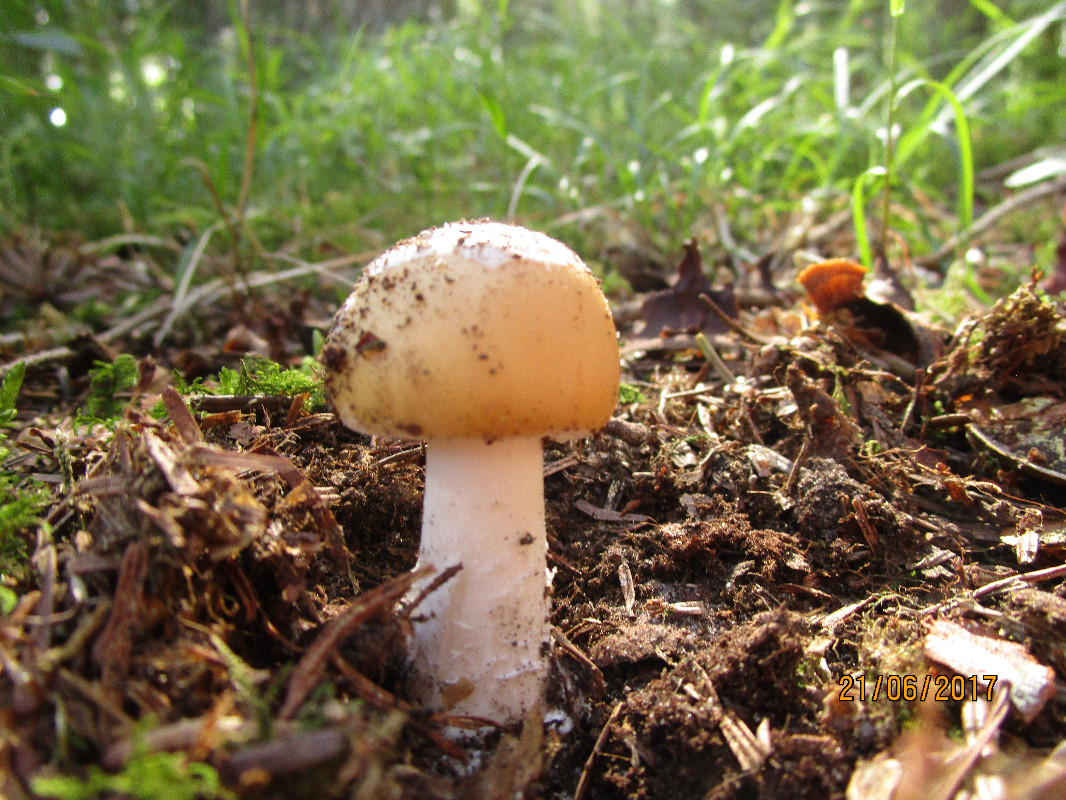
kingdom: Fungi
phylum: Basidiomycota
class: Agaricomycetes
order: Agaricales
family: Amanitaceae
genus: Amanita
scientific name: Amanita gemmata
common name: okkergul fluesvamp
